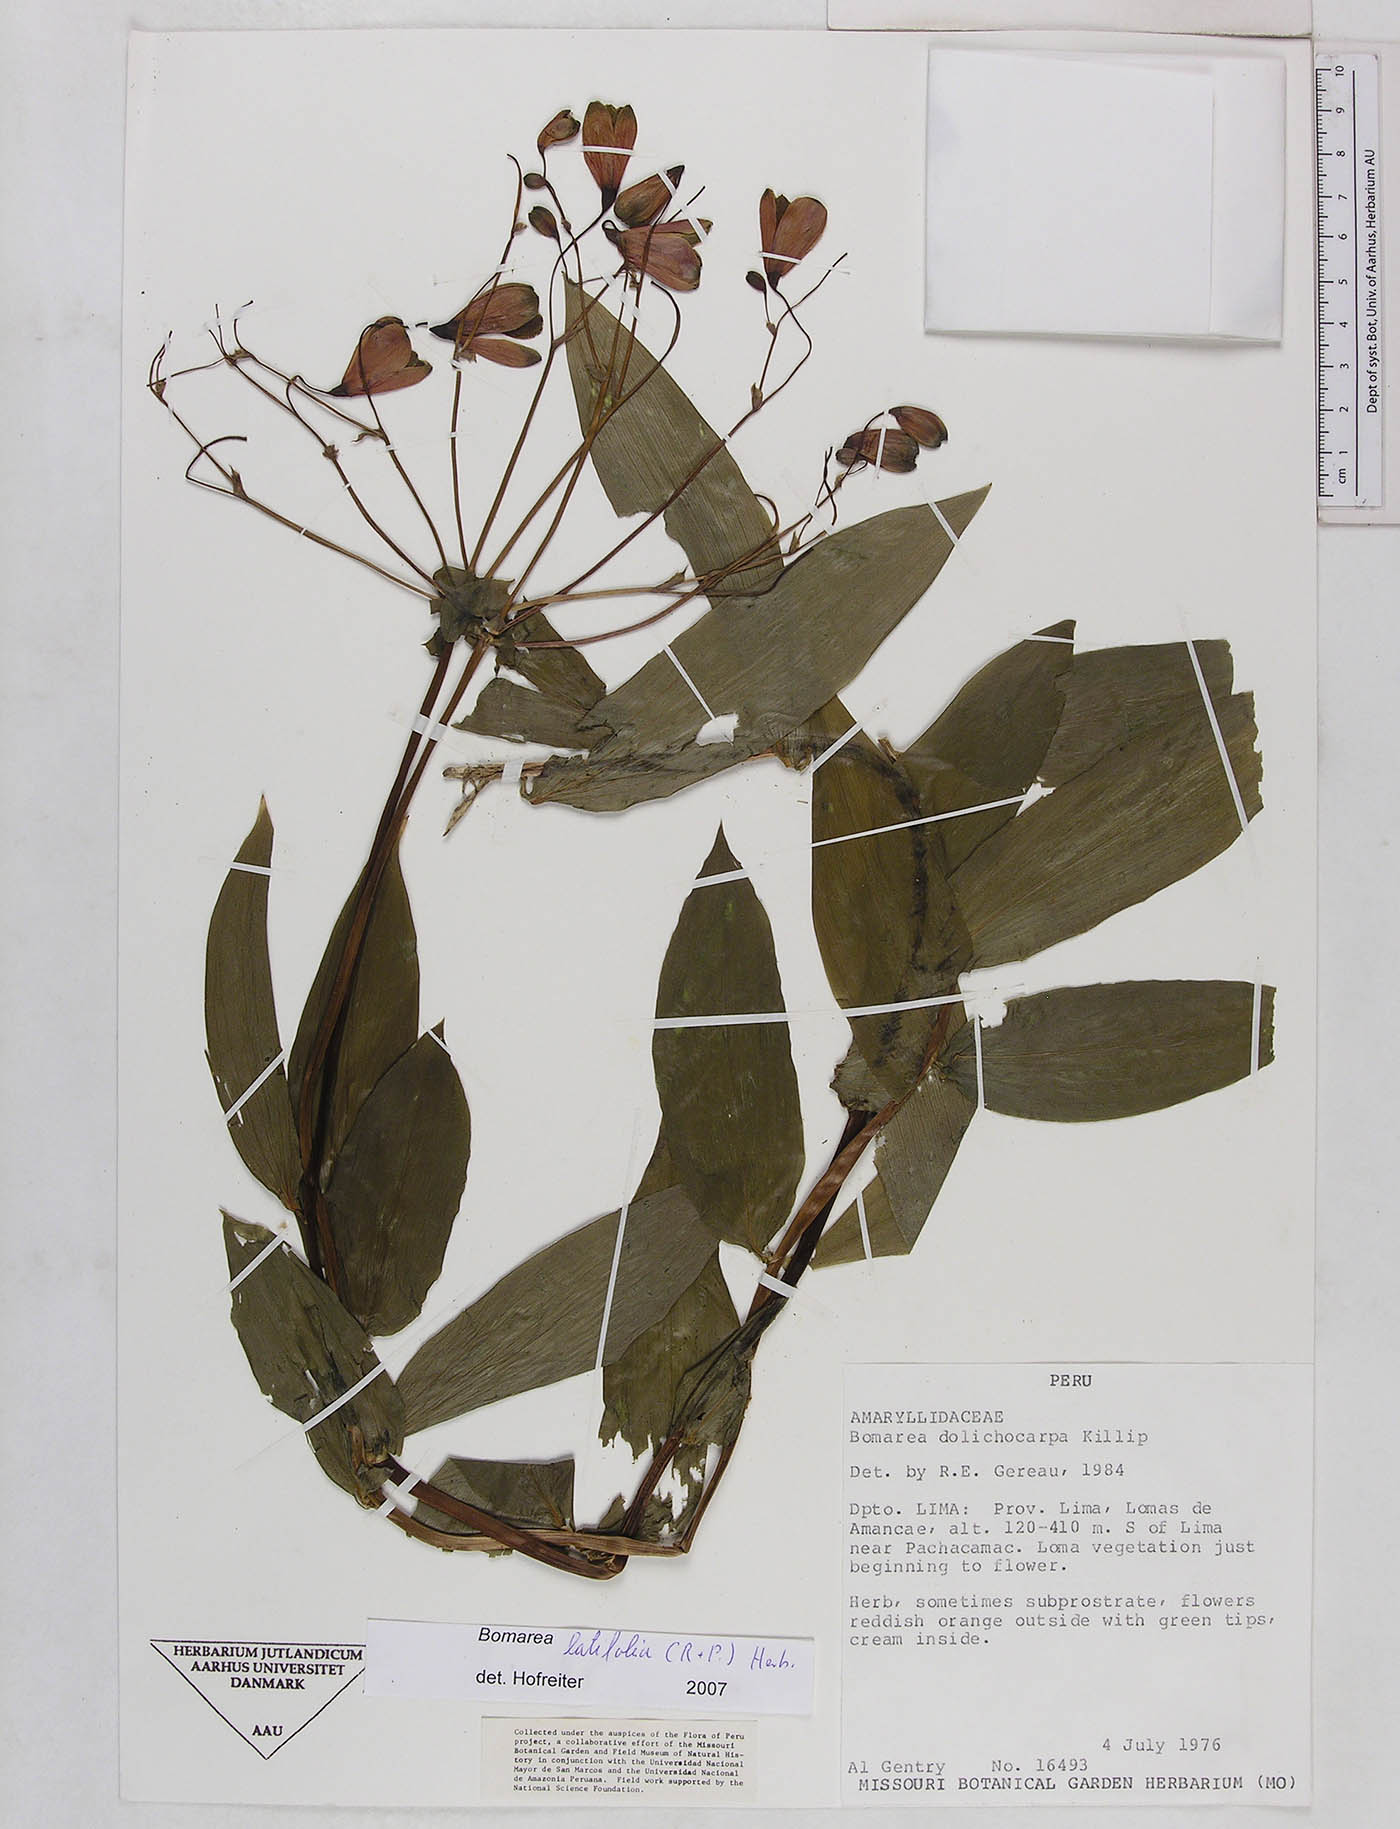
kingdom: Plantae
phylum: Tracheophyta
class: Liliopsida
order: Liliales
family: Alstroemeriaceae
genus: Bomarea
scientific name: Bomarea latifolia
